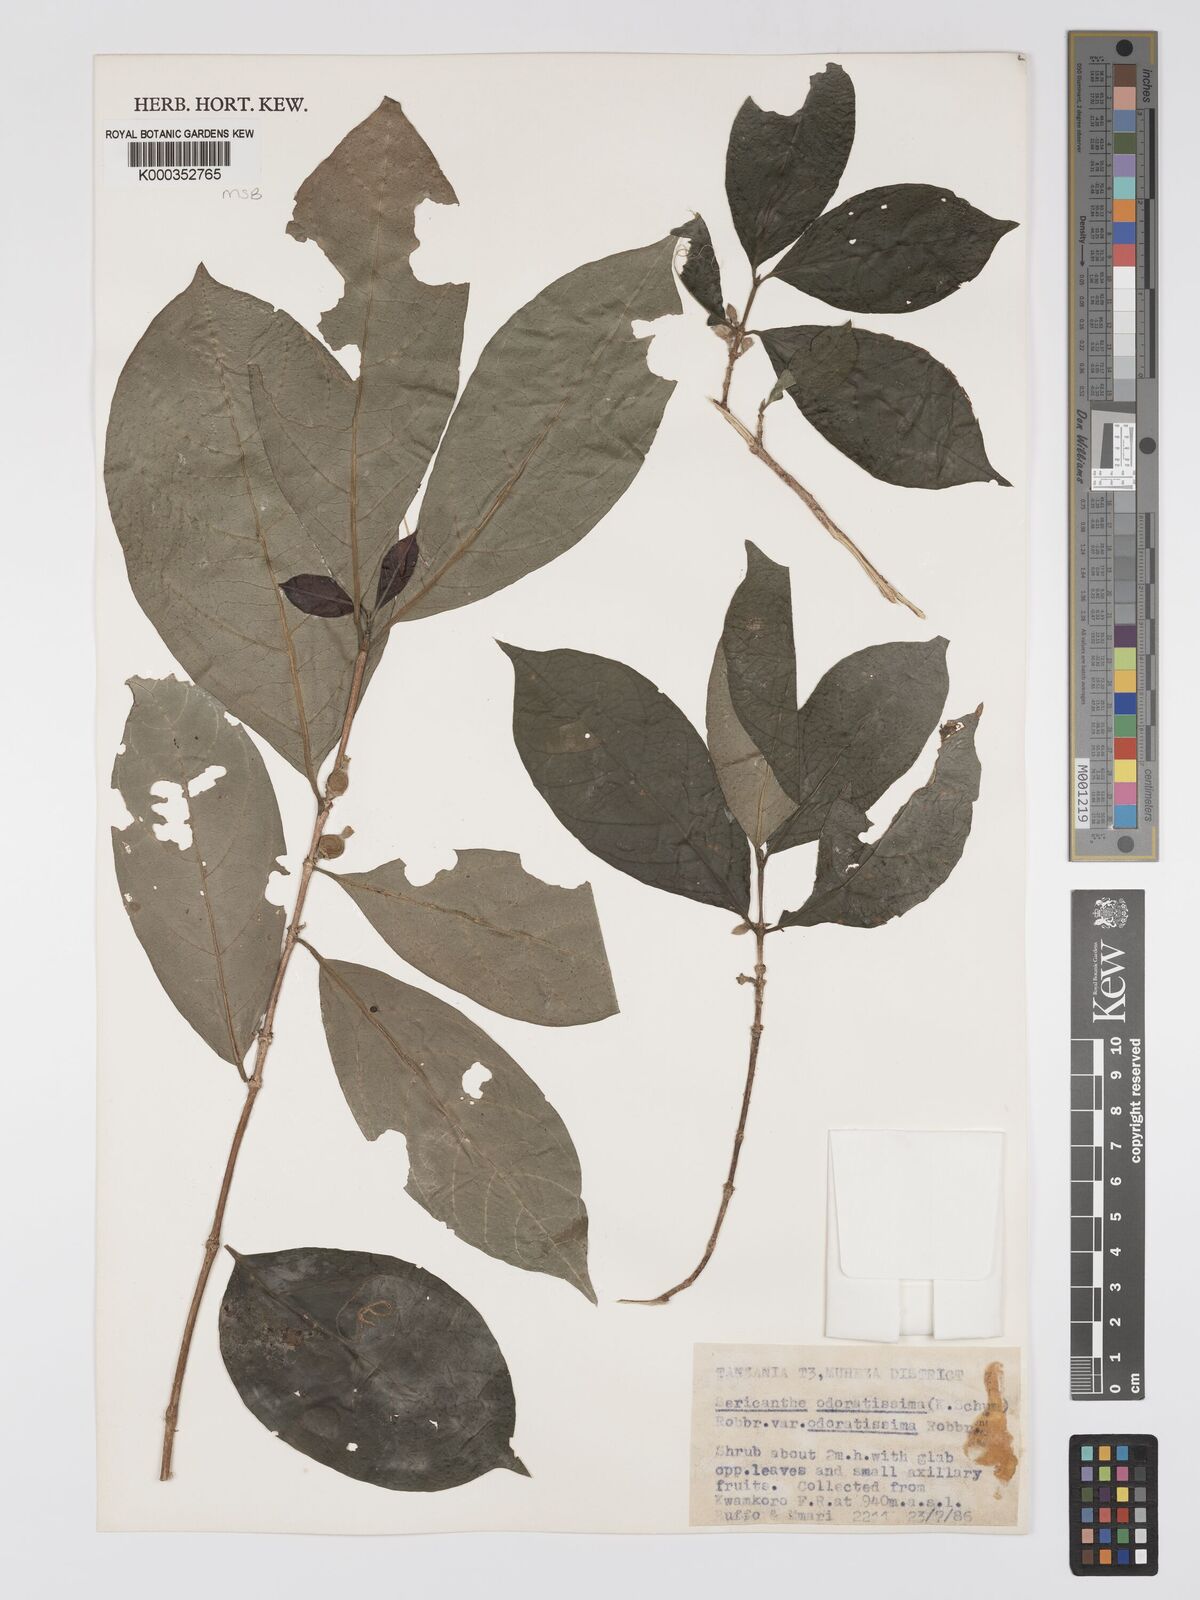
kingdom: Plantae
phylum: Tracheophyta
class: Magnoliopsida
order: Gentianales
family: Rubiaceae
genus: Sericanthe
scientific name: Sericanthe odoratissima
